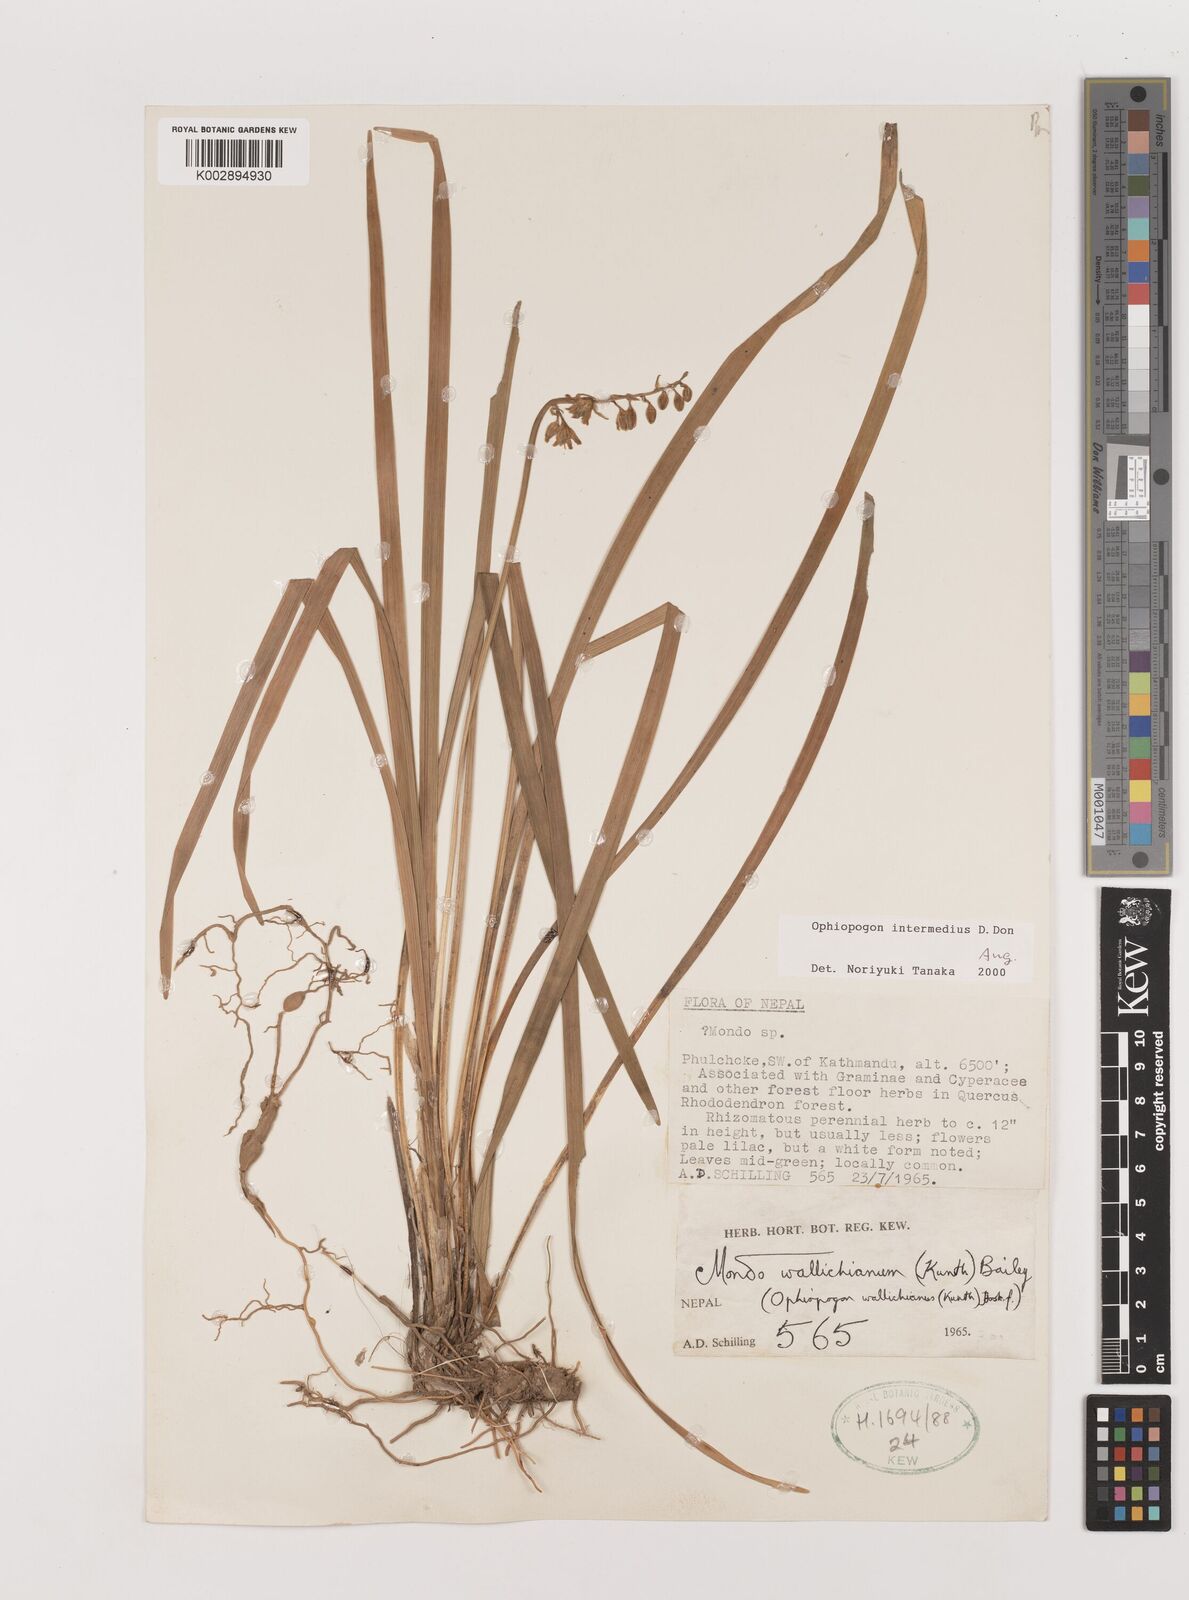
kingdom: Plantae
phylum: Tracheophyta
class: Liliopsida
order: Asparagales
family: Asparagaceae
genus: Ophiopogon
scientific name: Ophiopogon intermedius
